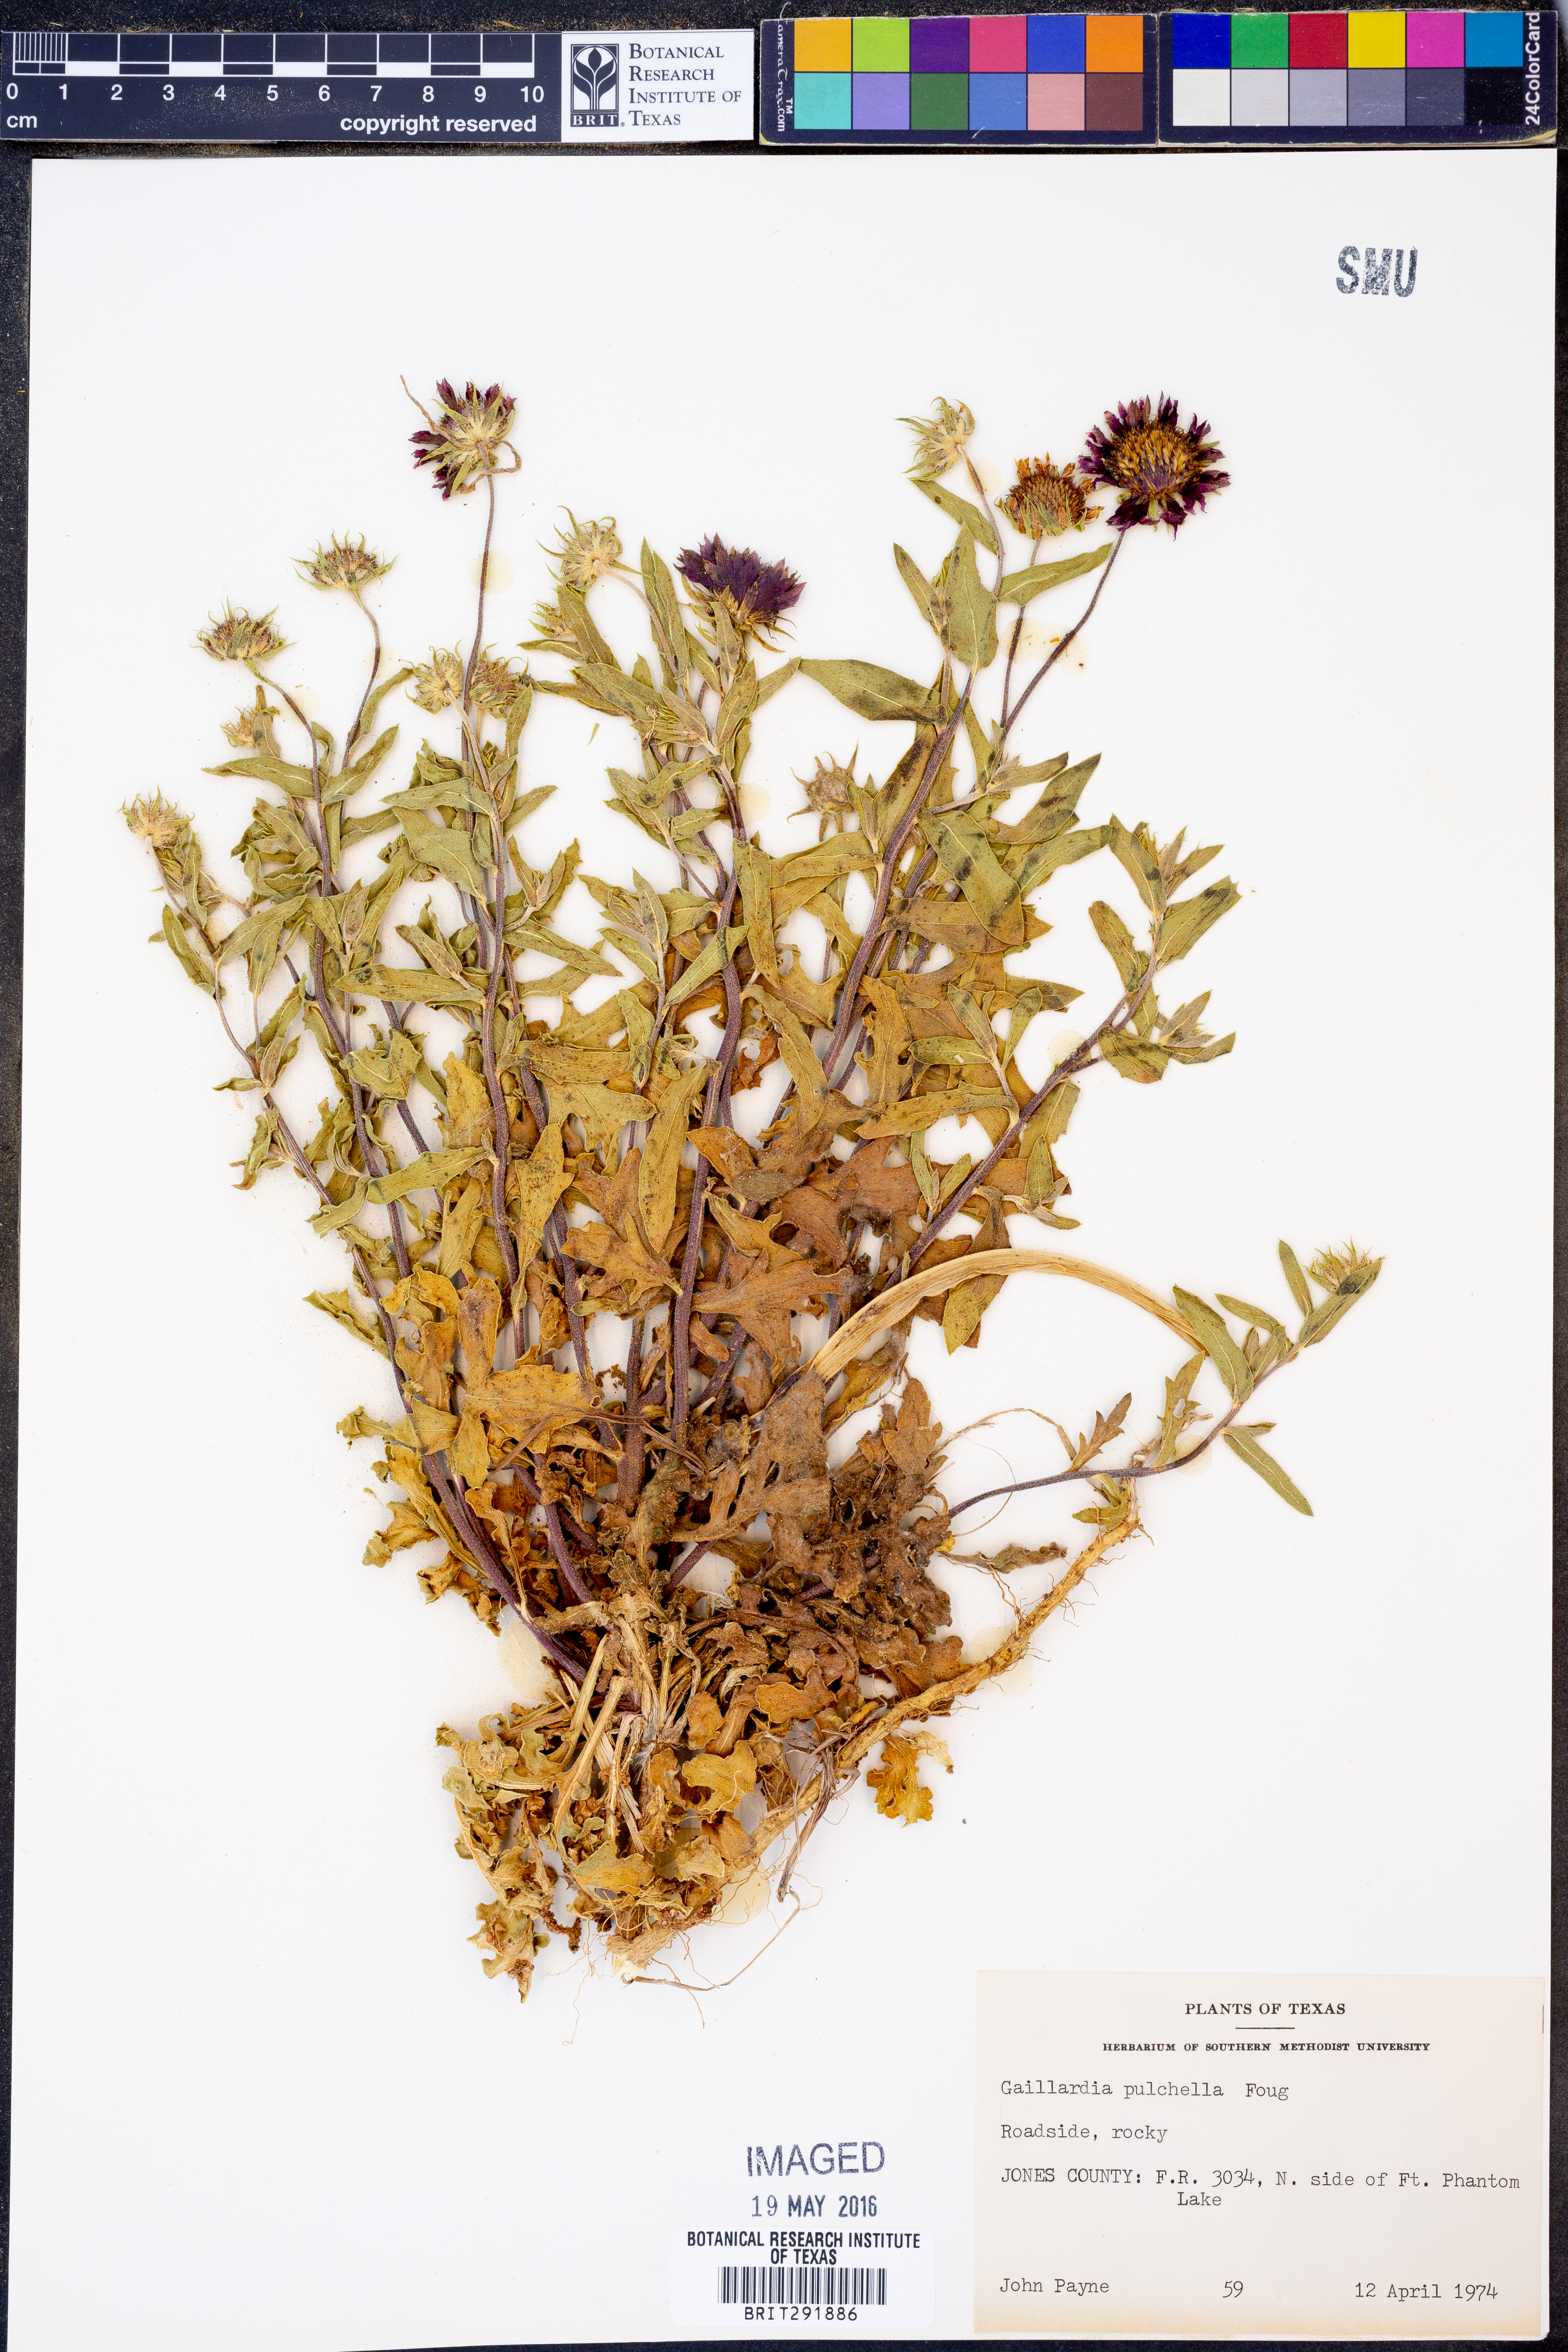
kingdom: Plantae
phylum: Tracheophyta
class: Magnoliopsida
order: Asterales
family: Asteraceae
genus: Gaillardia
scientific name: Gaillardia pulchella
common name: Firewheel
